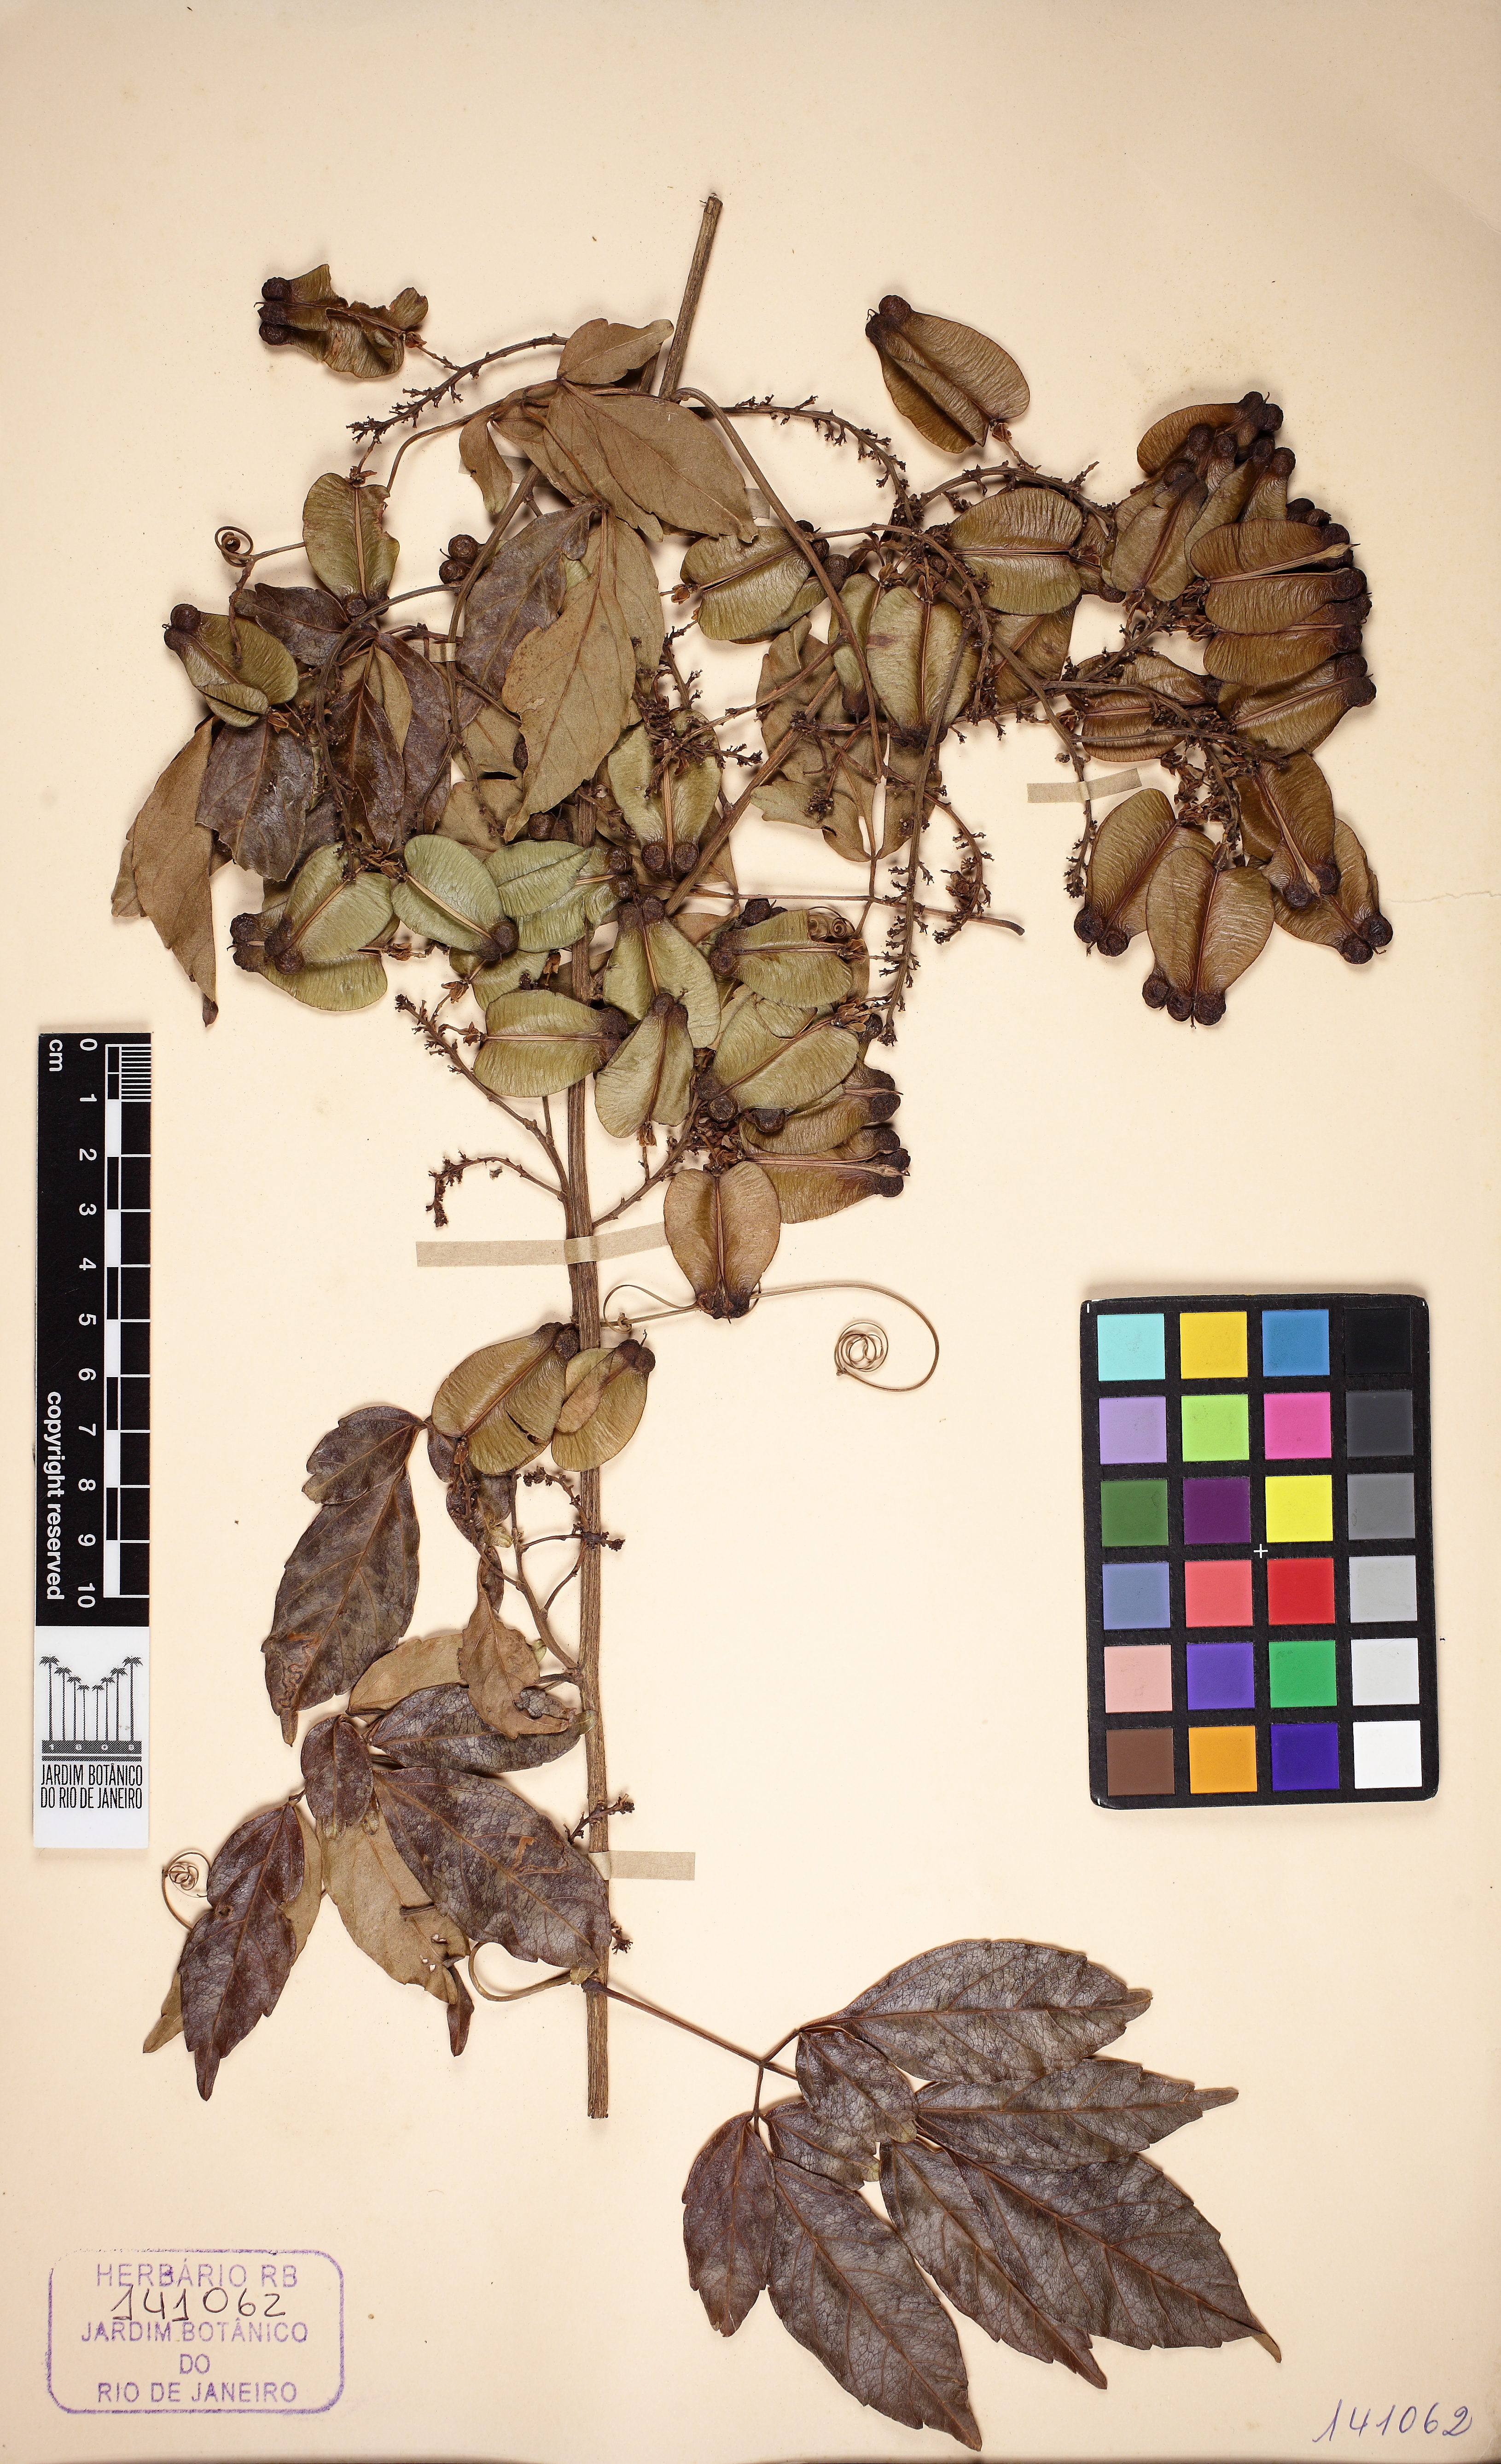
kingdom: Plantae
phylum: Tracheophyta
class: Magnoliopsida
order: Sapindales
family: Sapindaceae
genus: Serjania
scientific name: Serjania caracasana
